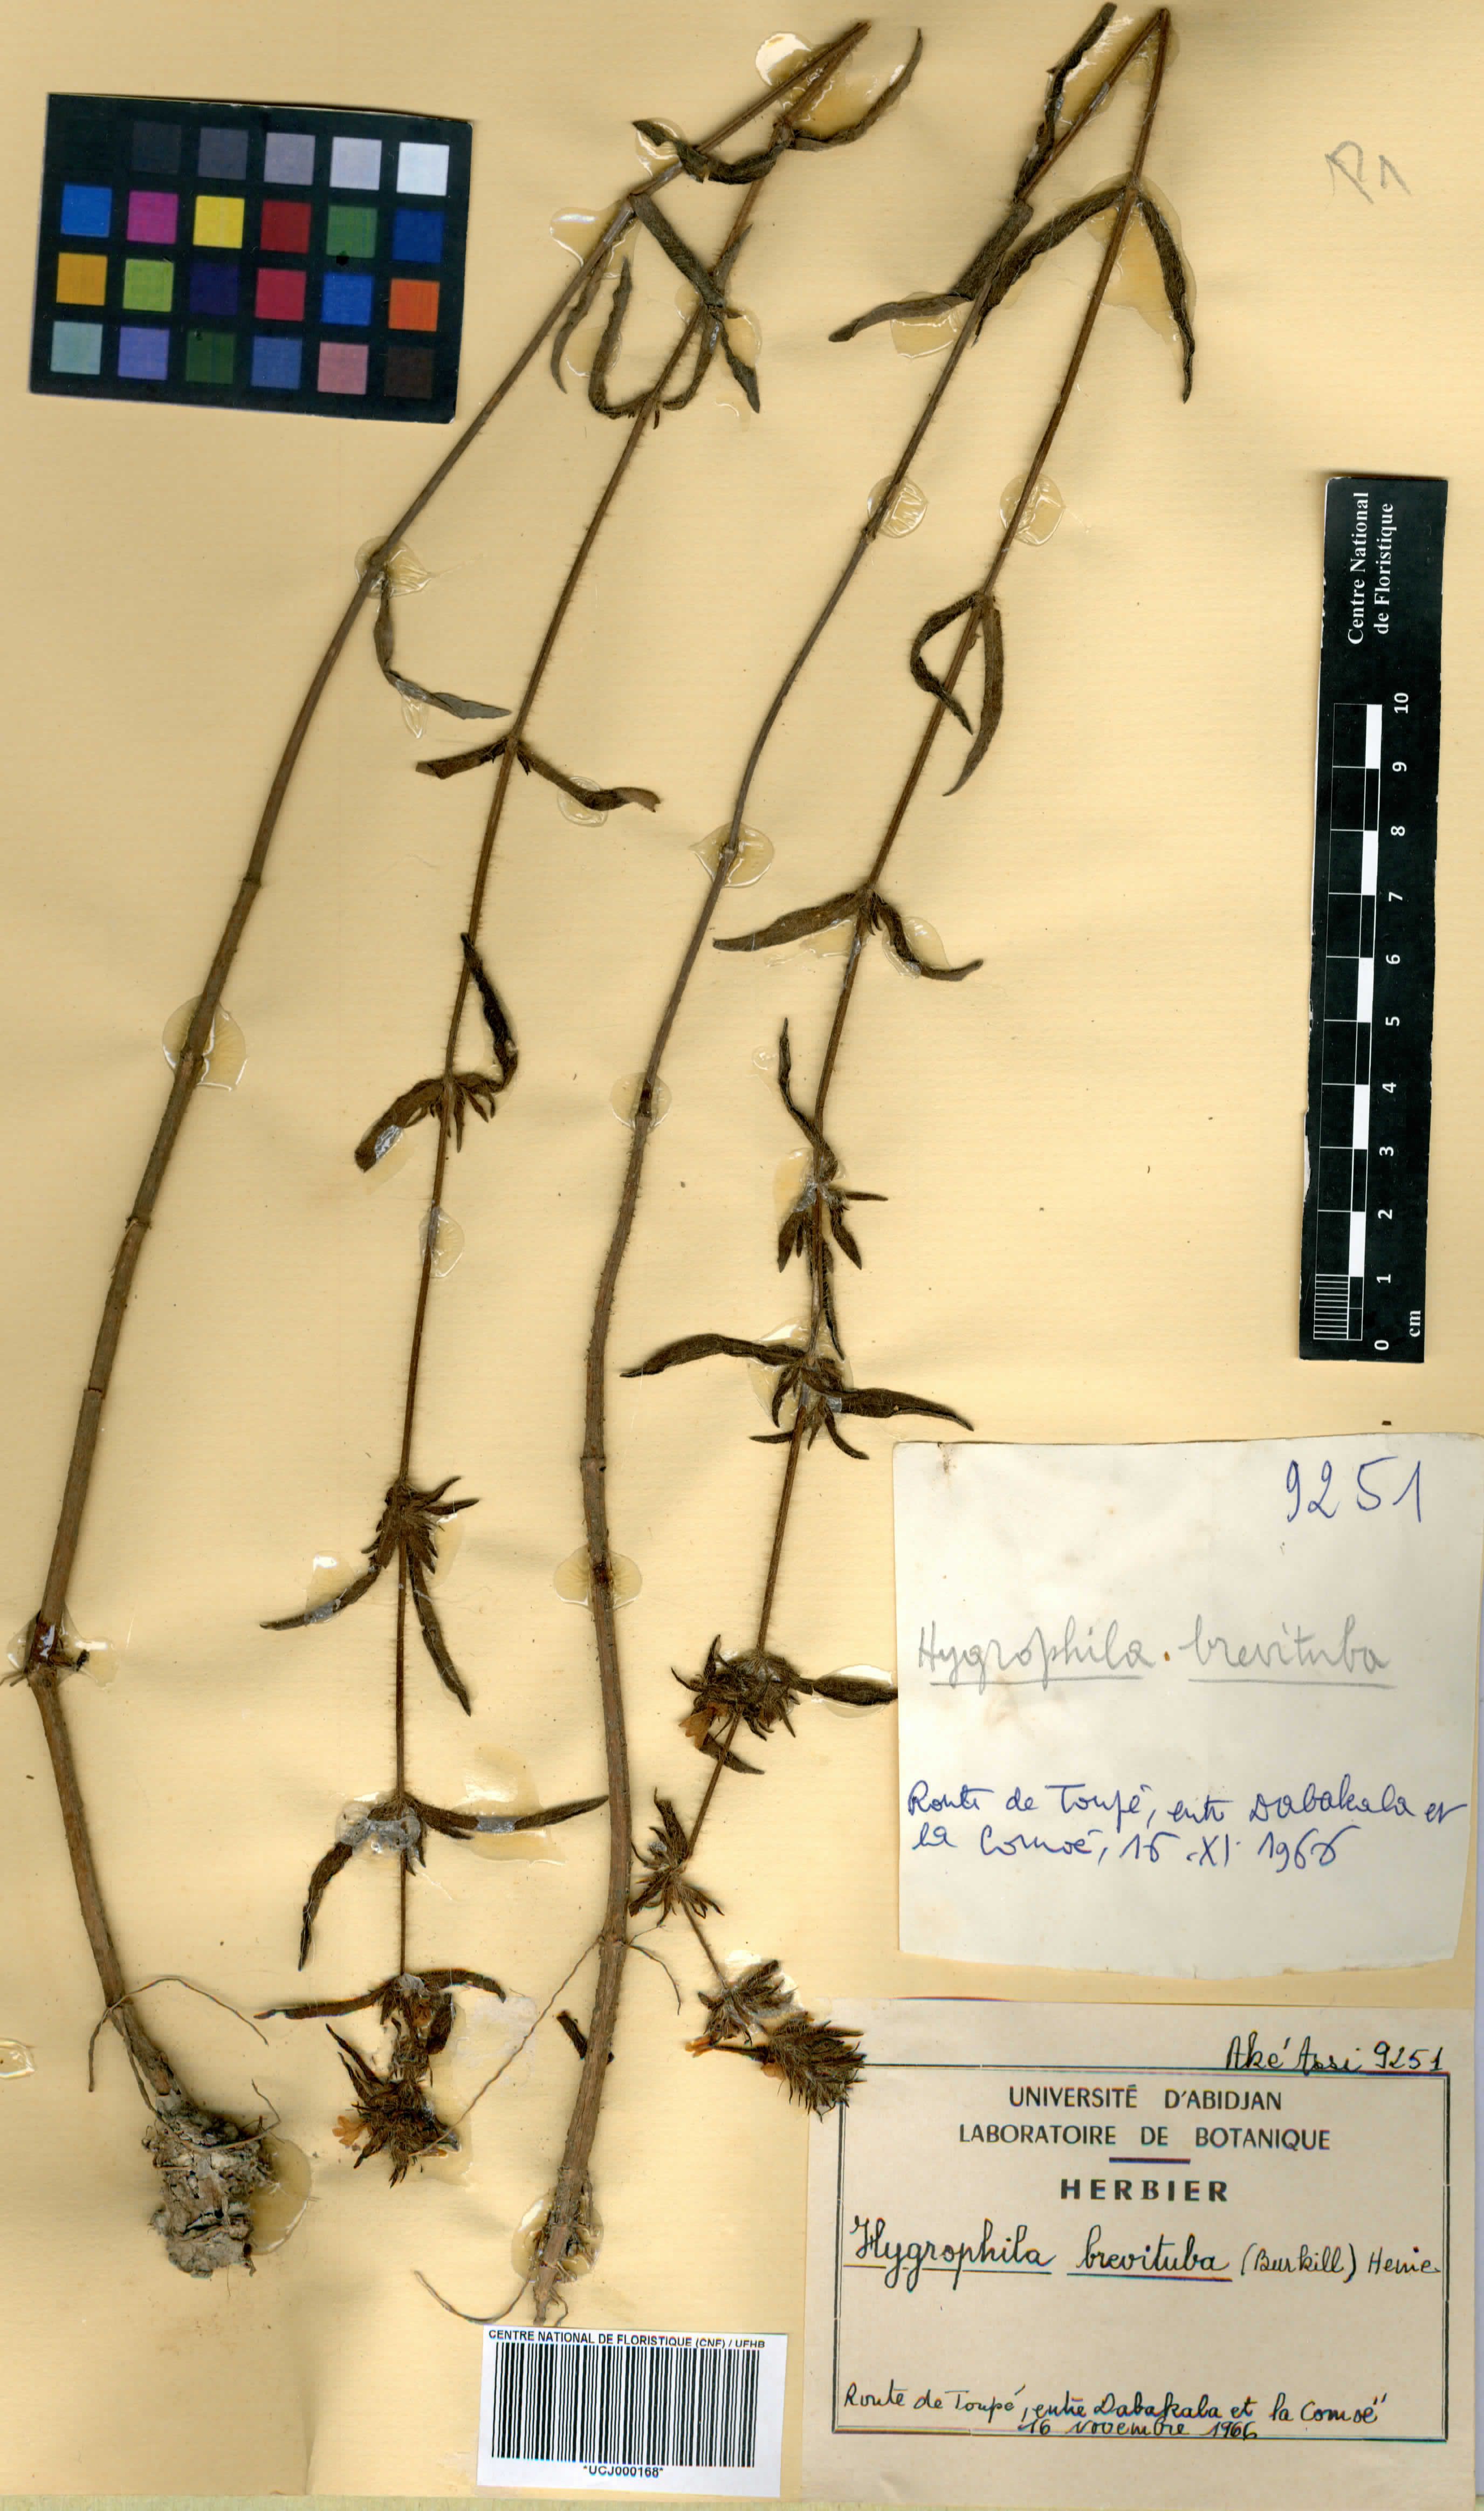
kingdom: Plantae
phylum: Tracheophyta
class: Magnoliopsida
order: Lamiales
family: Acanthaceae
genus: Hygrophila
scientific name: Hygrophila brevituba
